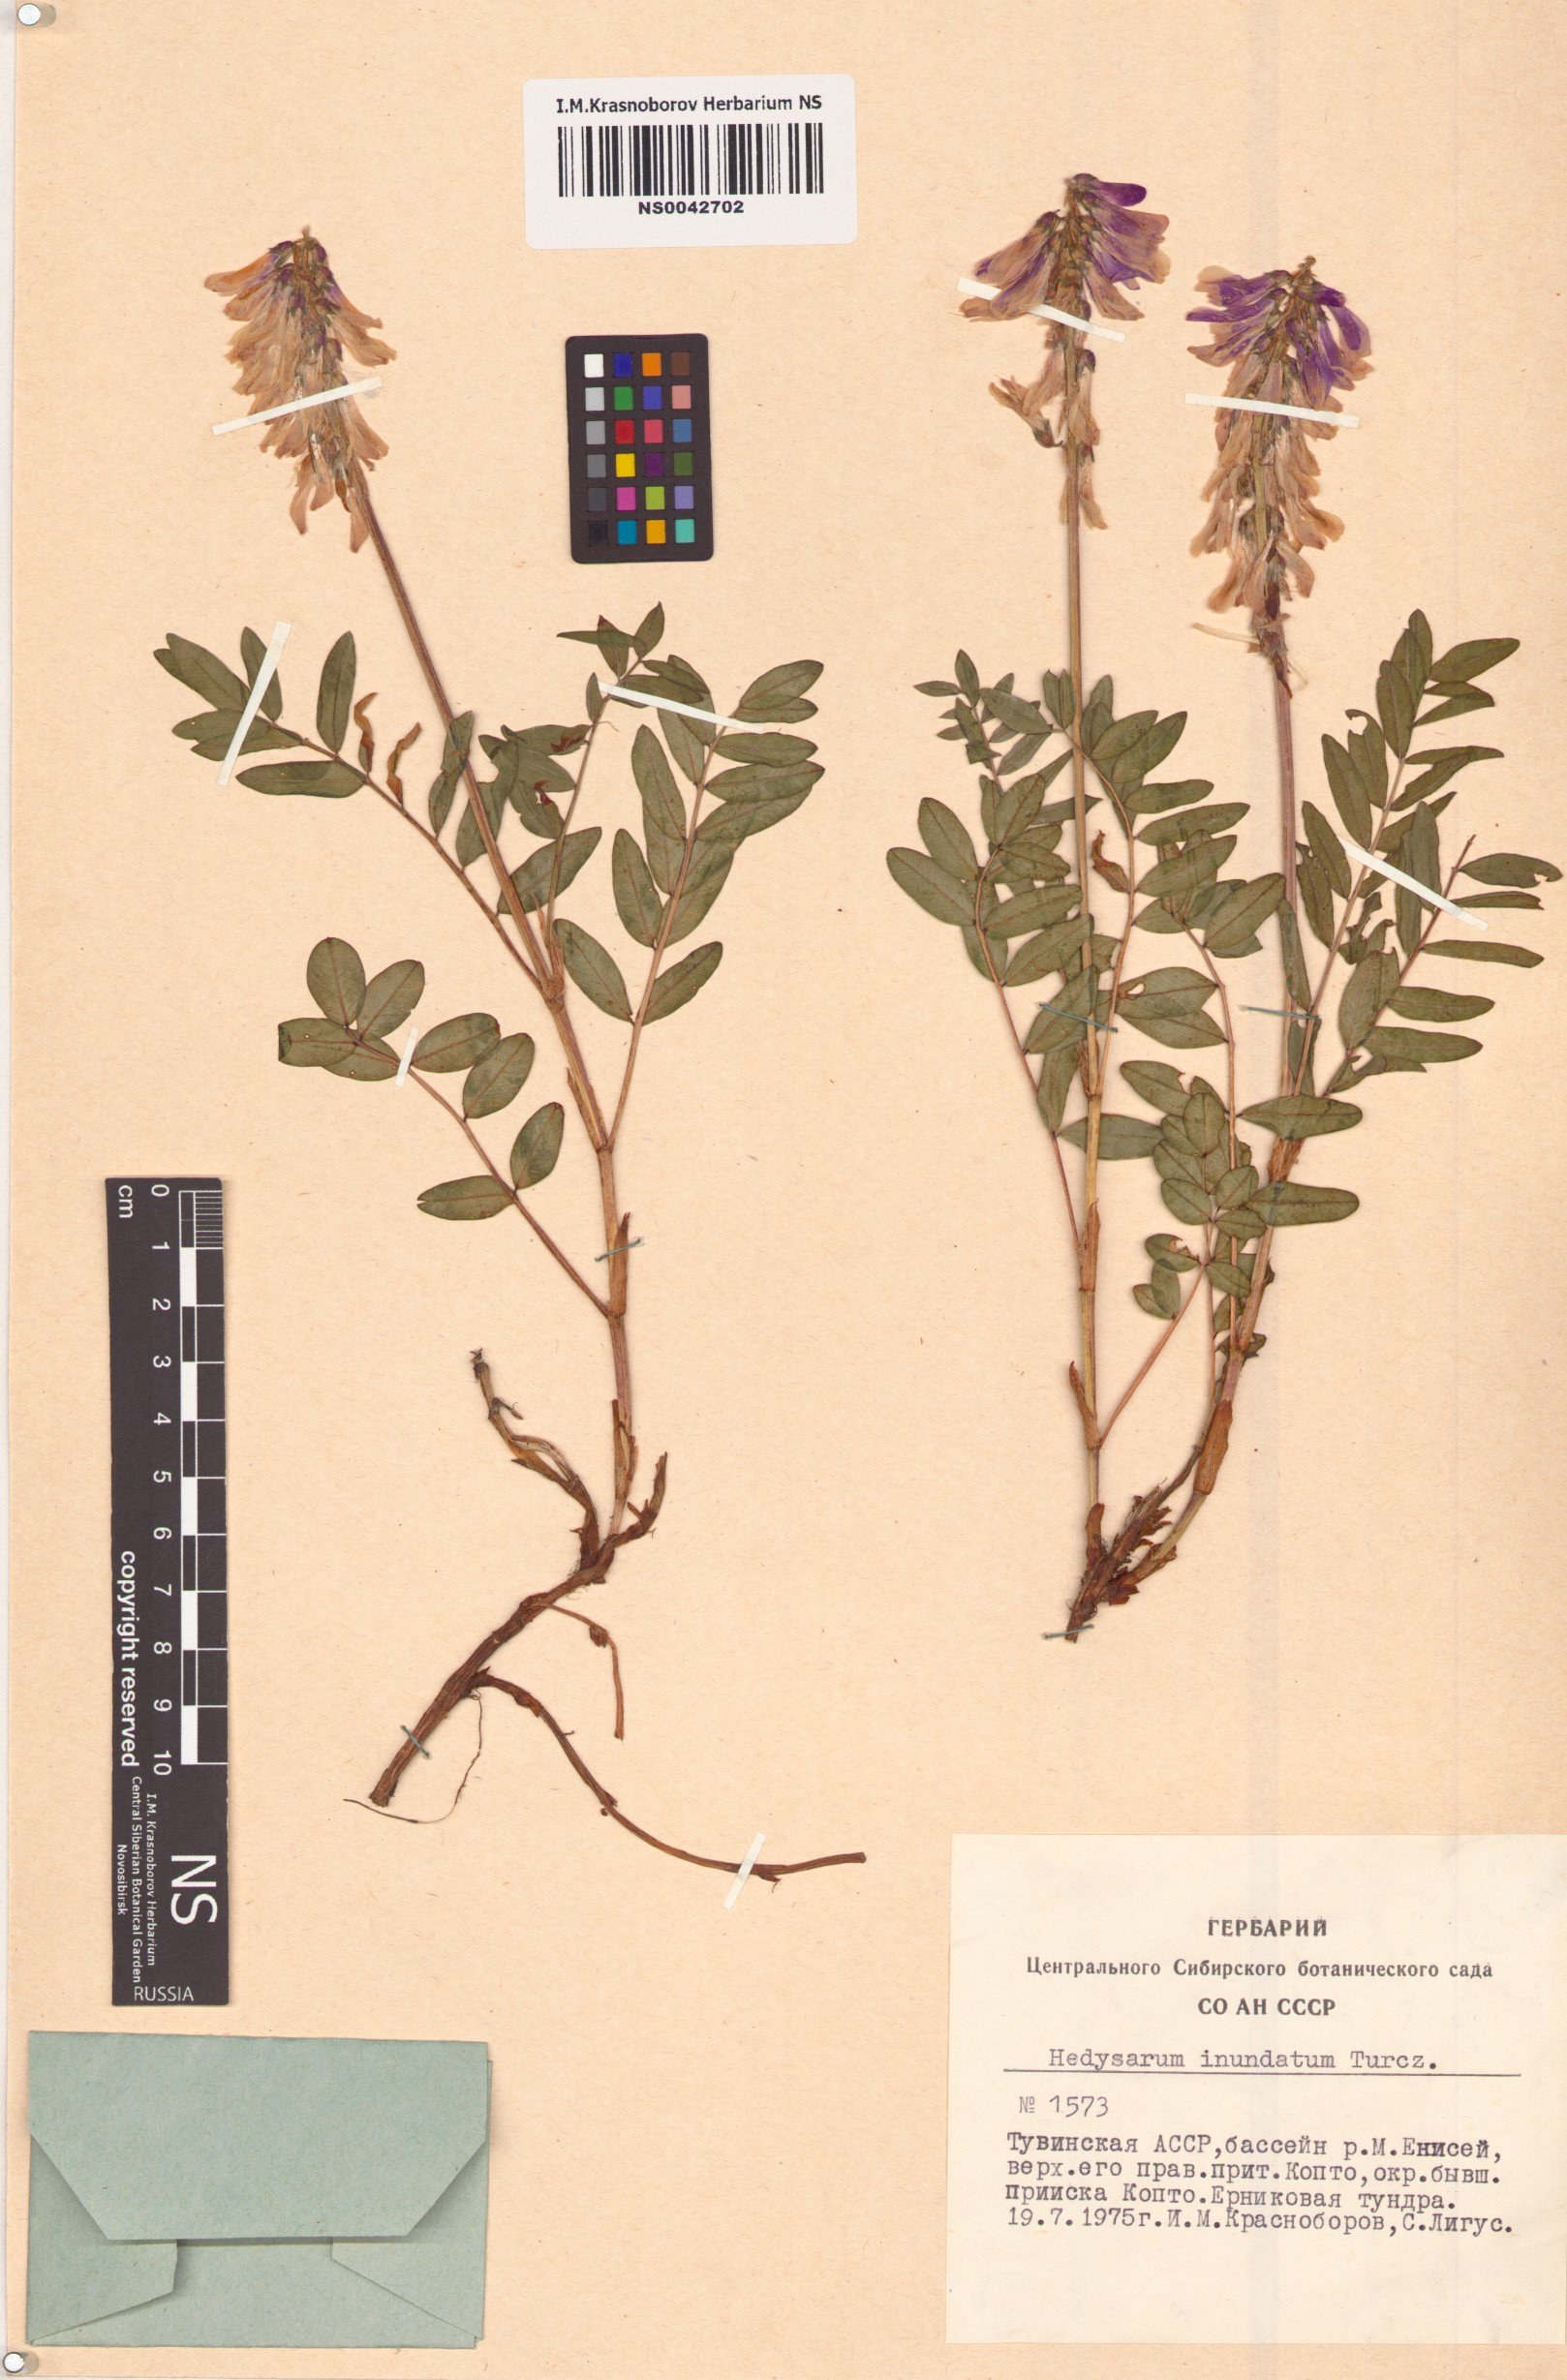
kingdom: Plantae
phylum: Tracheophyta
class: Magnoliopsida
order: Fabales
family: Fabaceae
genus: Hedysarum
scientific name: Hedysarum inundatum
